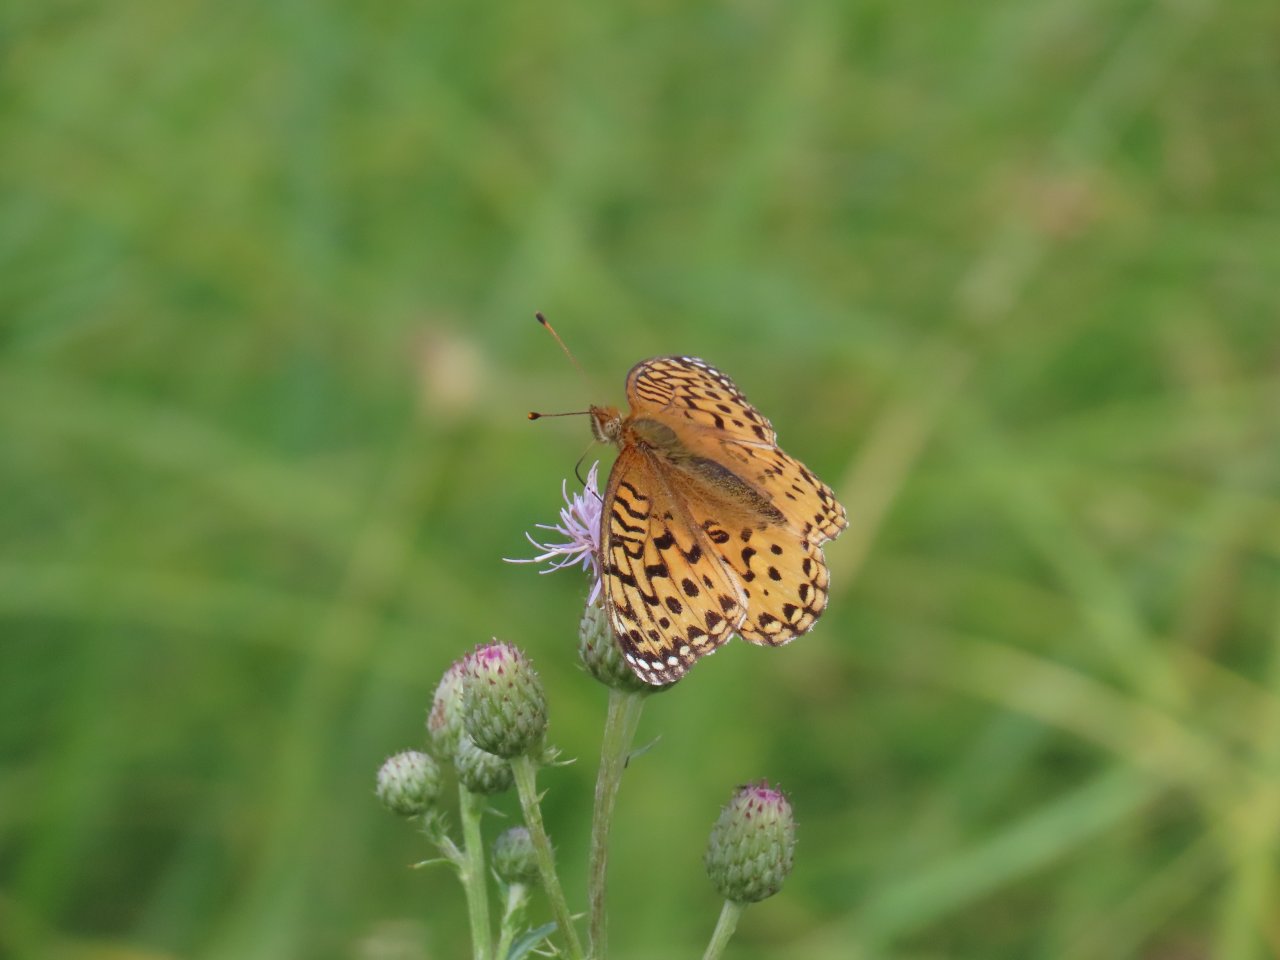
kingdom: Animalia
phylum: Arthropoda
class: Insecta
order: Lepidoptera
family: Nymphalidae
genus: Speyeria
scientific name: Speyeria cybele
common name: Great Spangled Fritillary
